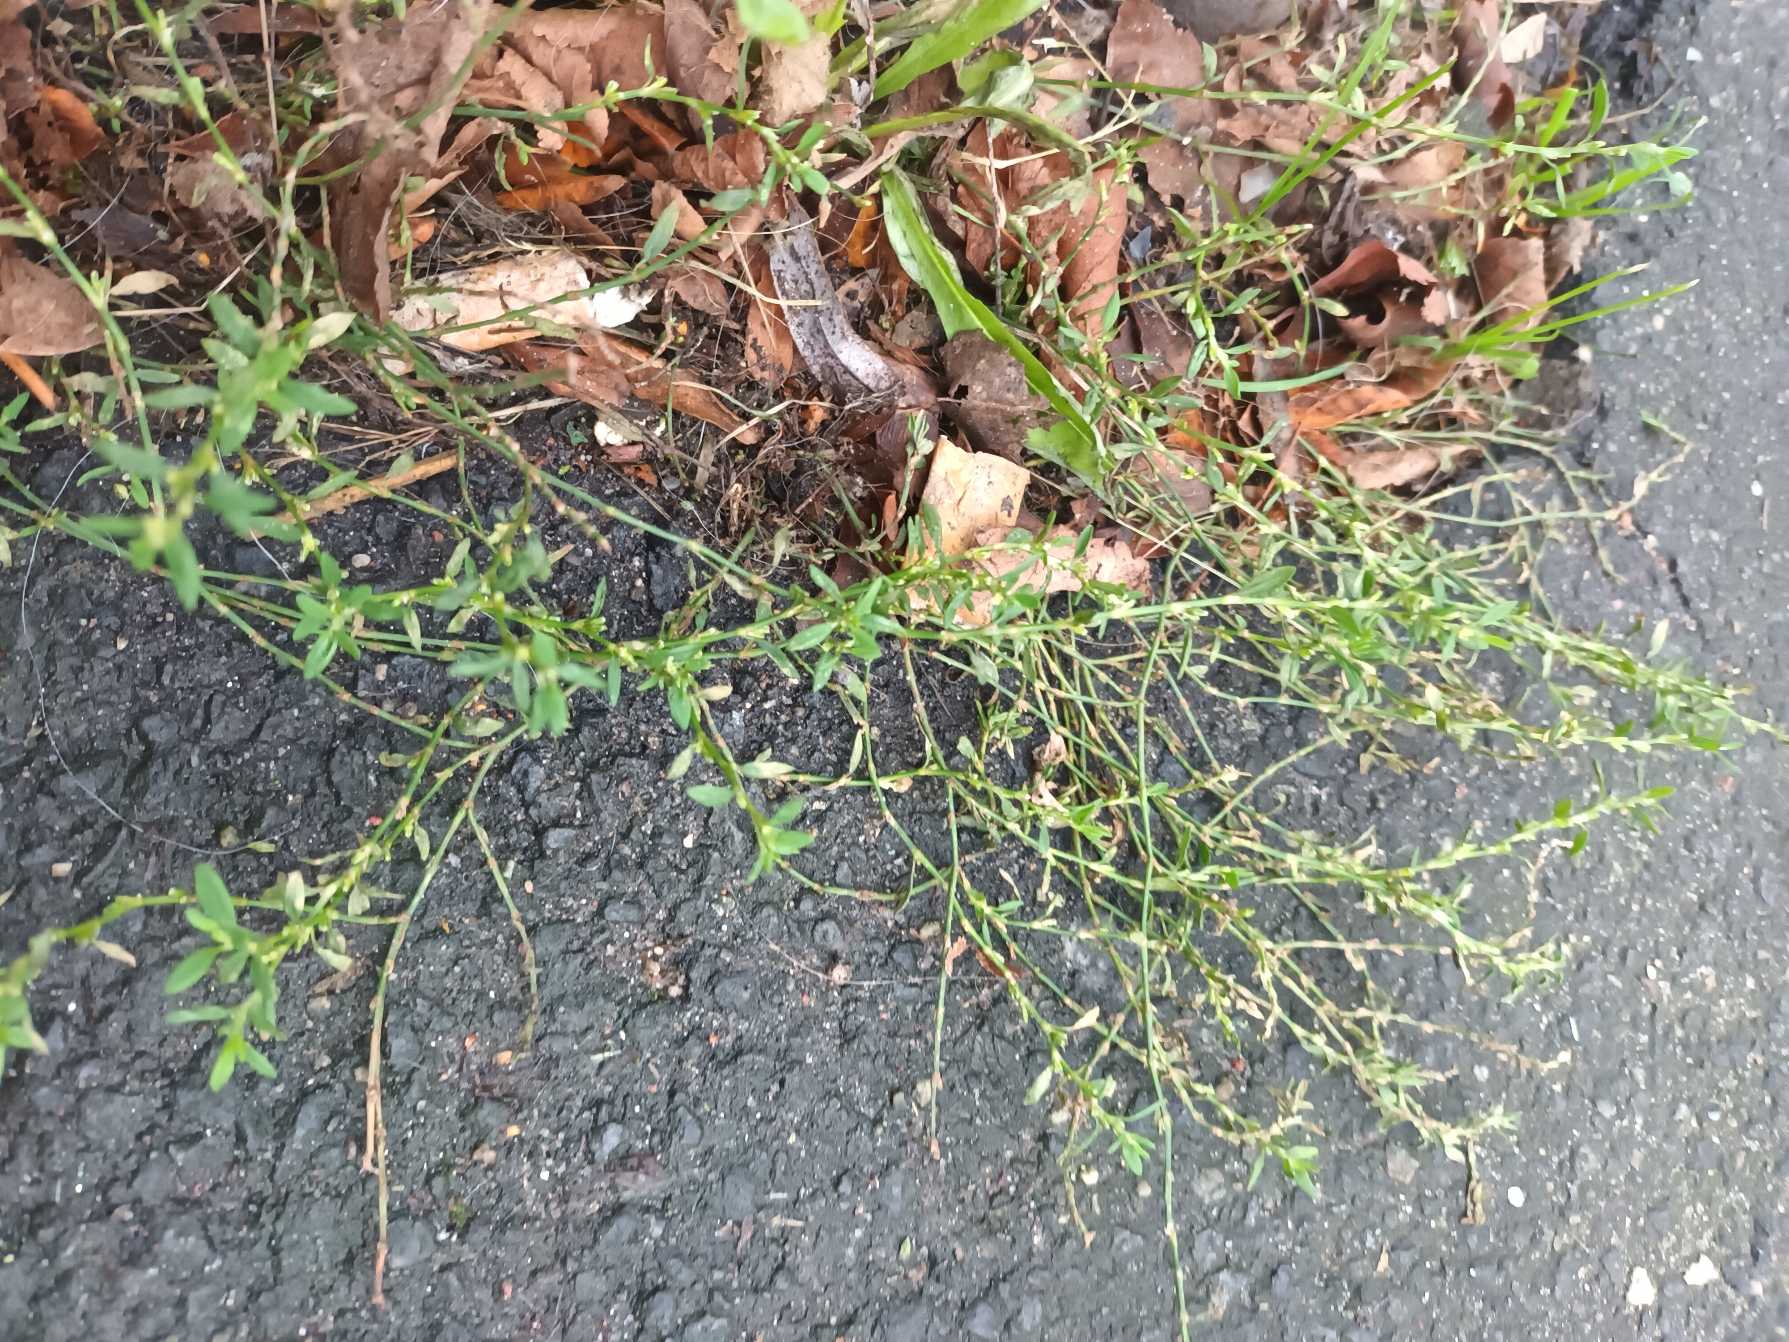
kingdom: Plantae
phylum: Tracheophyta
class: Magnoliopsida
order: Caryophyllales
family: Polygonaceae
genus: Polygonum
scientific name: Polygonum arenastrum
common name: Liggende vej-pileurt
